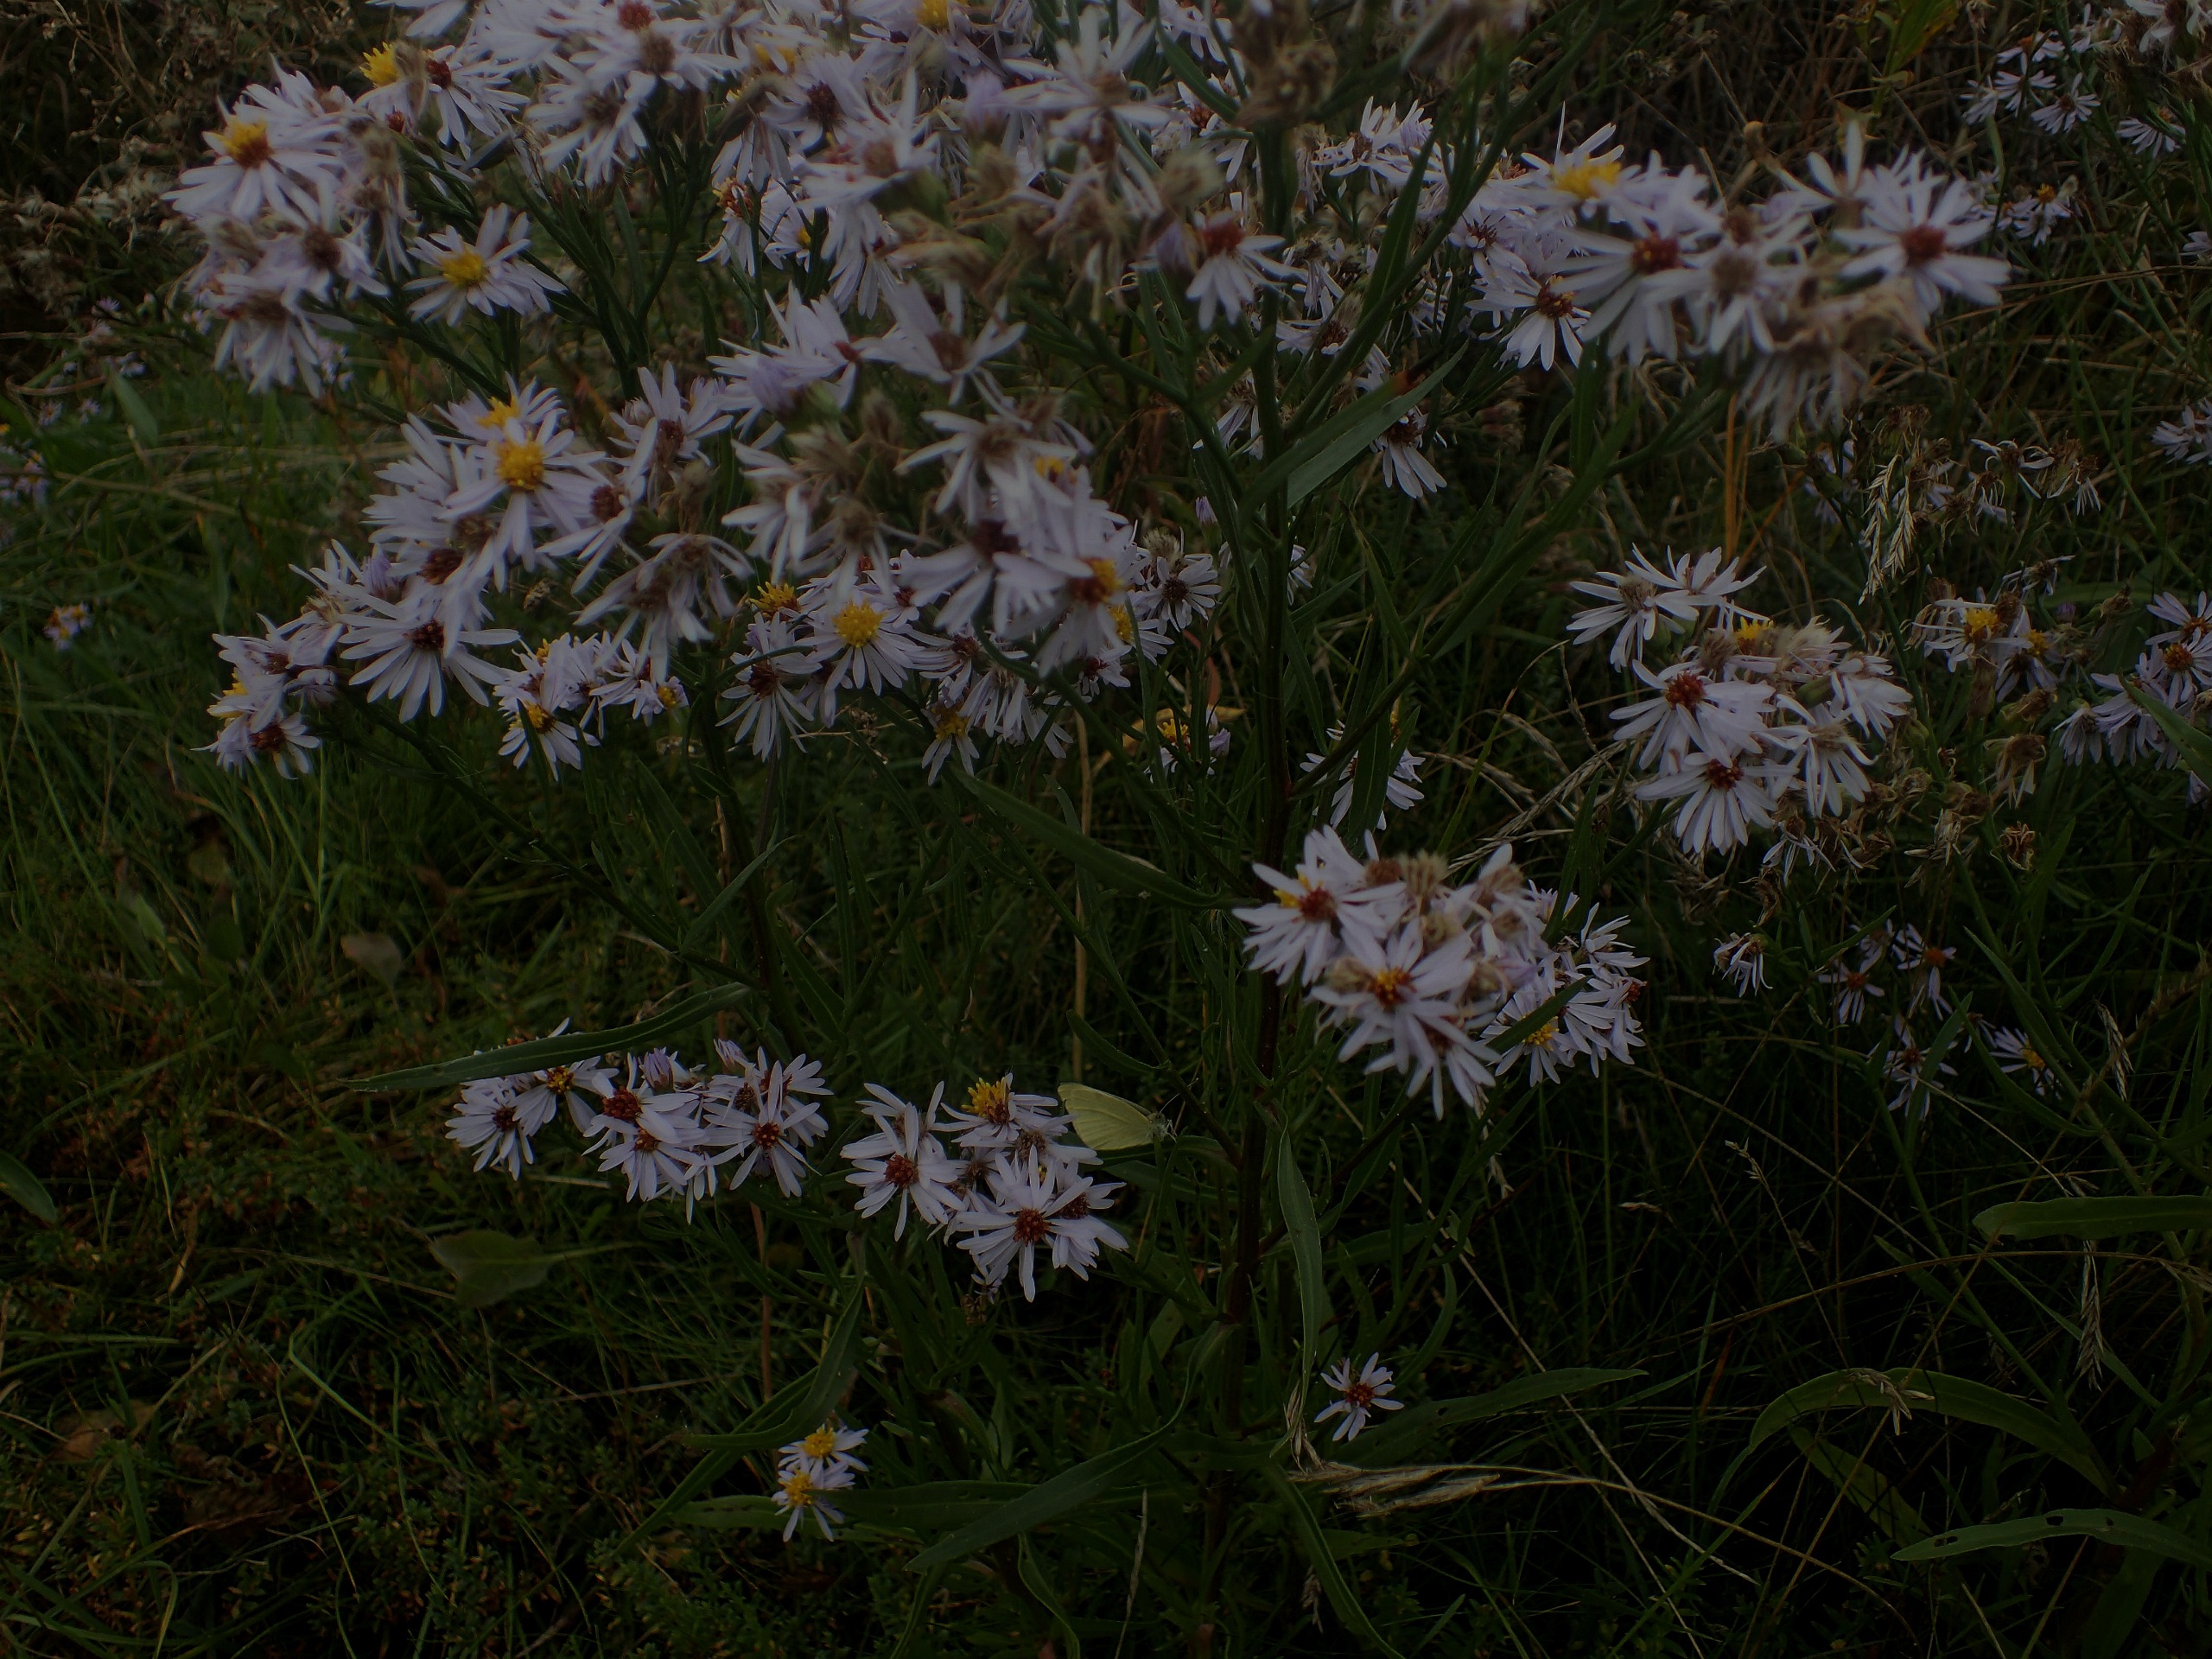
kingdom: Plantae
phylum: Tracheophyta
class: Magnoliopsida
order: Asterales
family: Asteraceae
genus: Tripolium
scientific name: Tripolium pannonicum
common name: Strandasters
